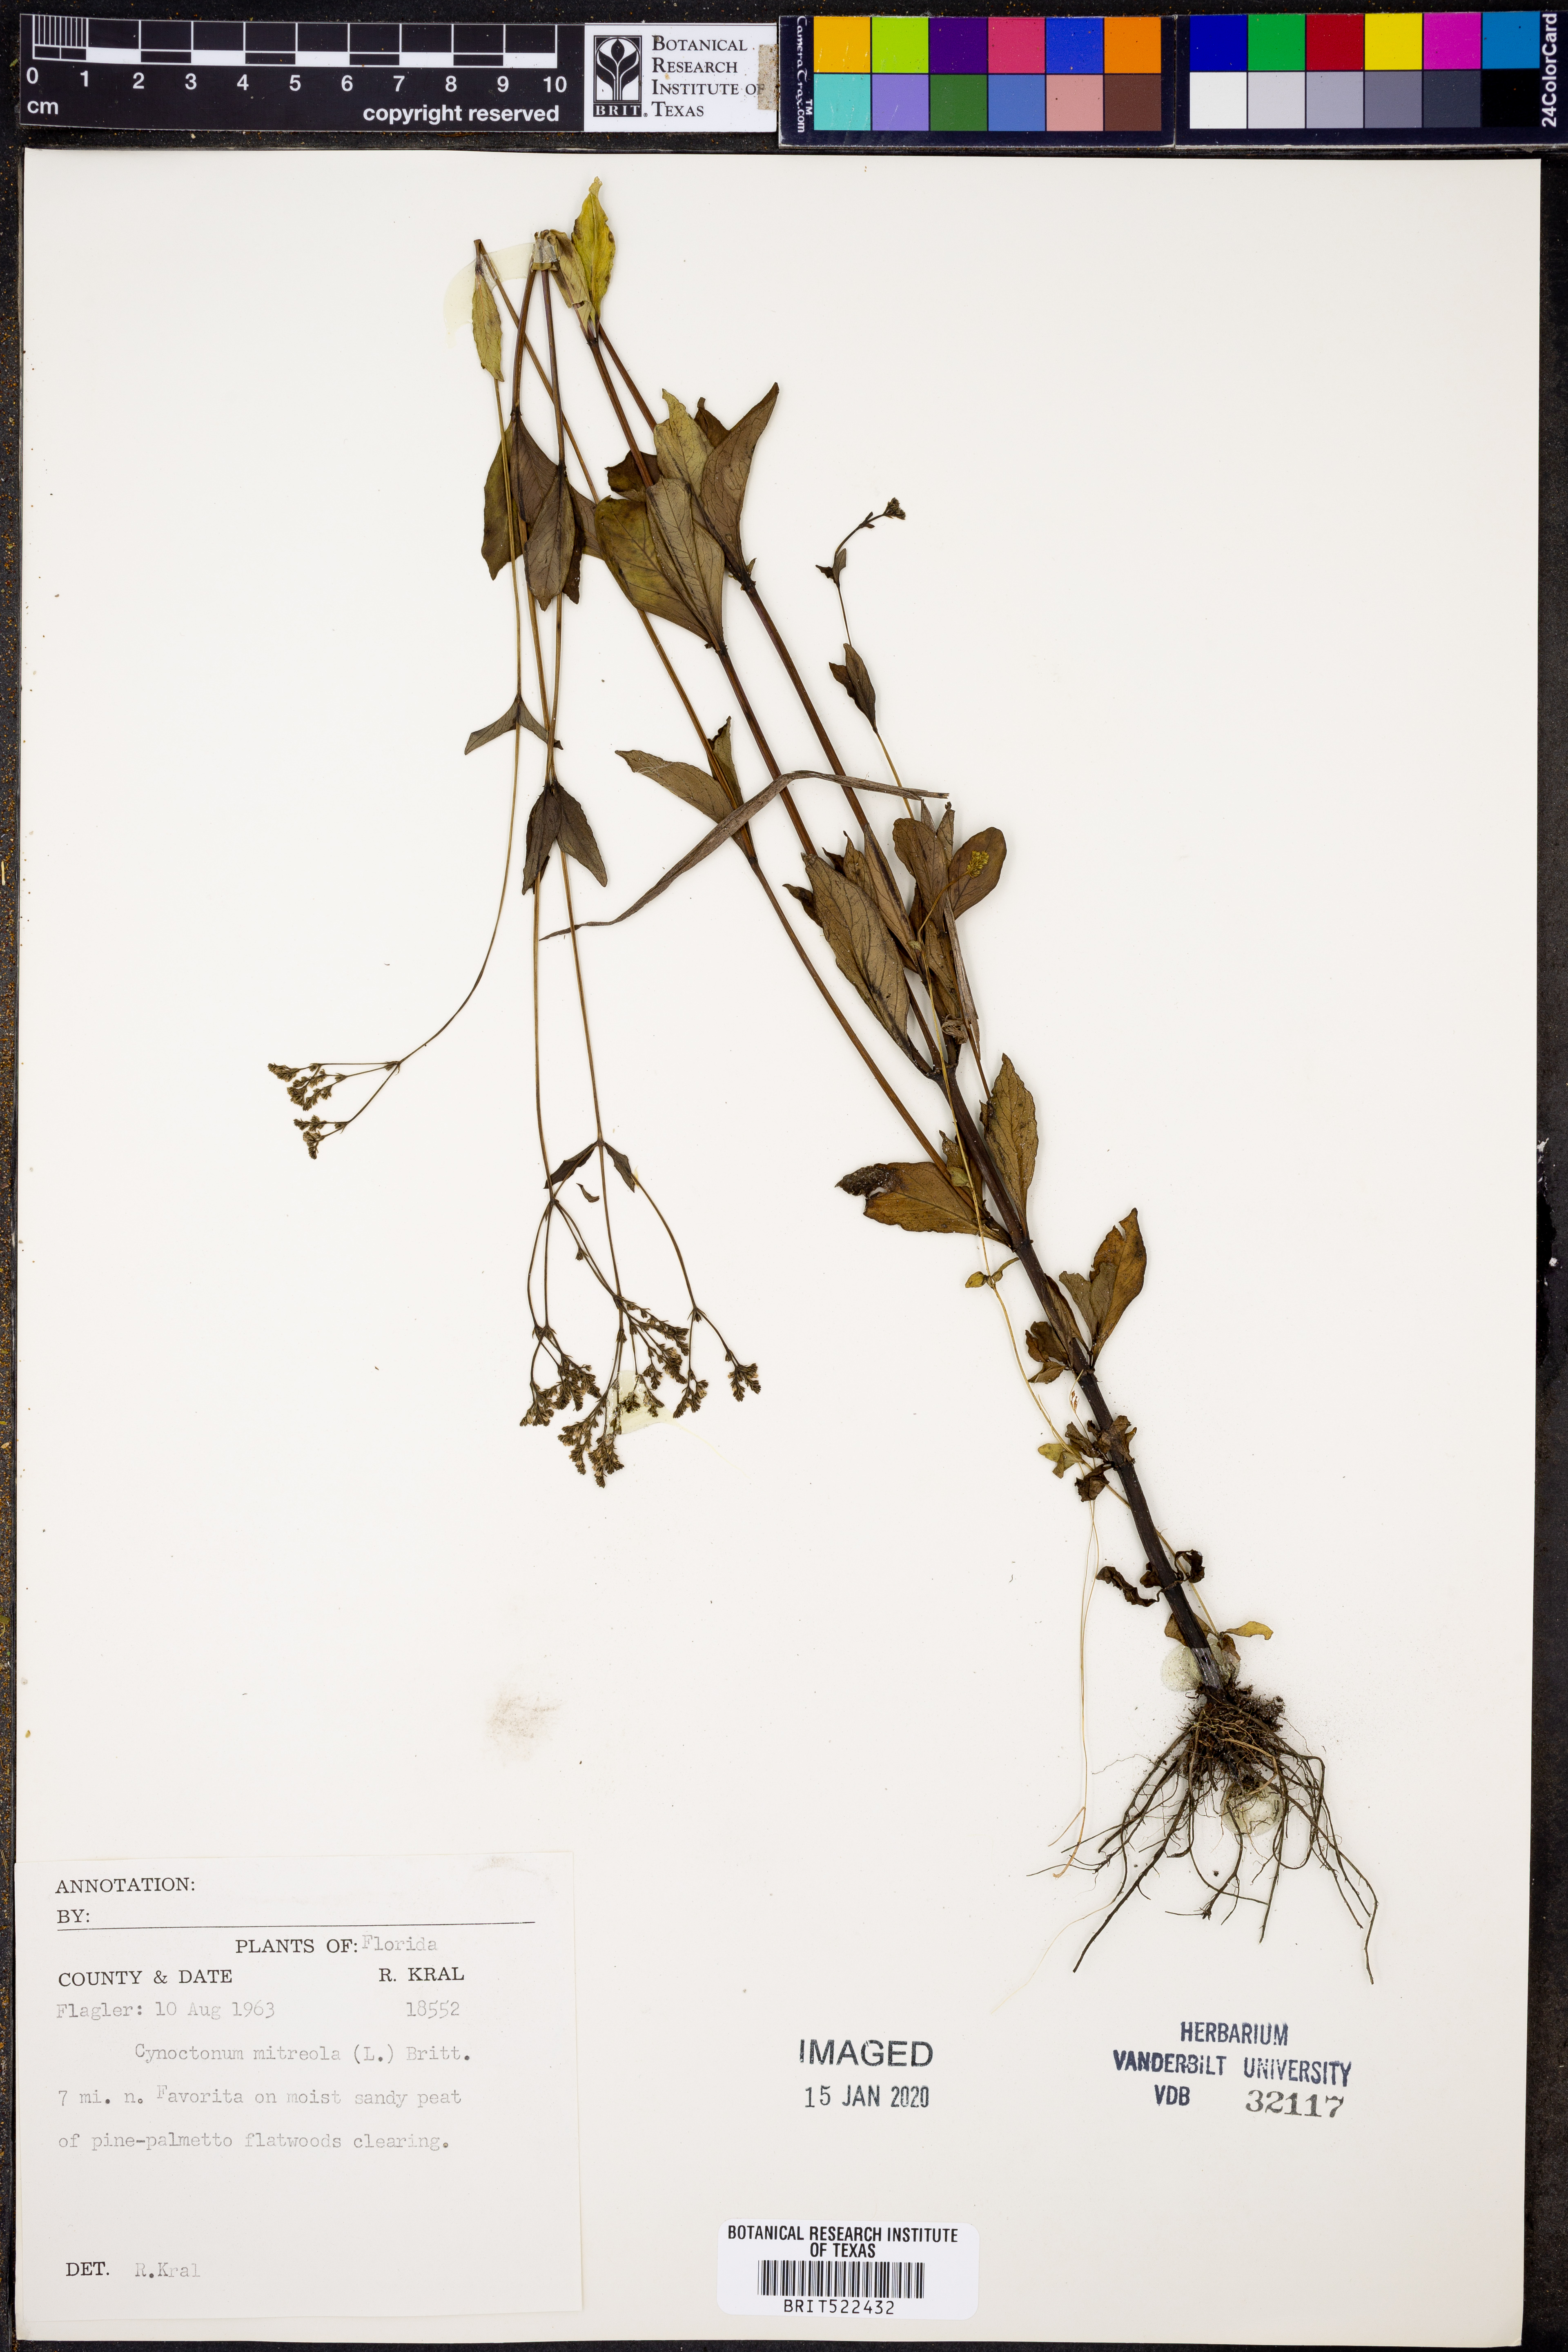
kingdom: Plantae
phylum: Tracheophyta
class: Magnoliopsida
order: Gentianales
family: Loganiaceae
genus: Mitreola
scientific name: Mitreola petiolata
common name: Lax hornpod
